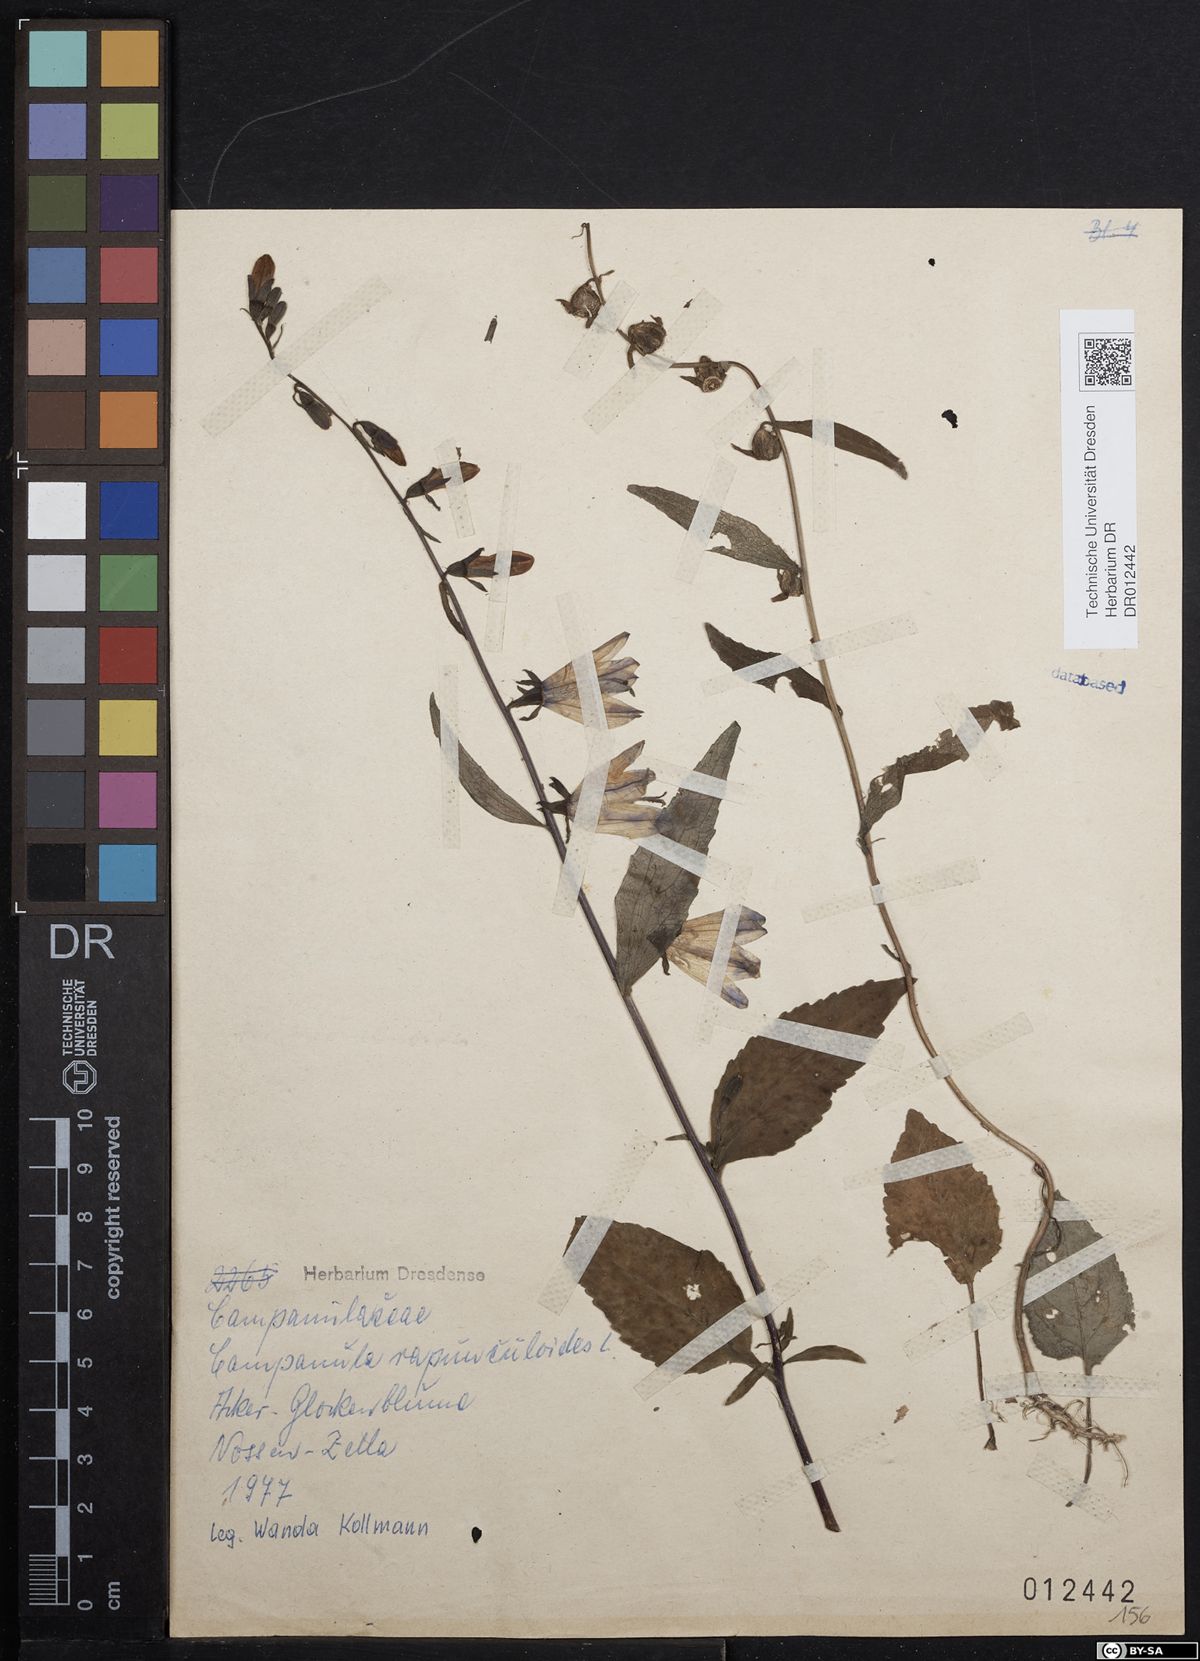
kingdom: Plantae
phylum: Tracheophyta
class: Magnoliopsida
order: Asterales
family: Campanulaceae
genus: Campanula
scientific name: Campanula rapunculoides
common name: Creeping bellflower
